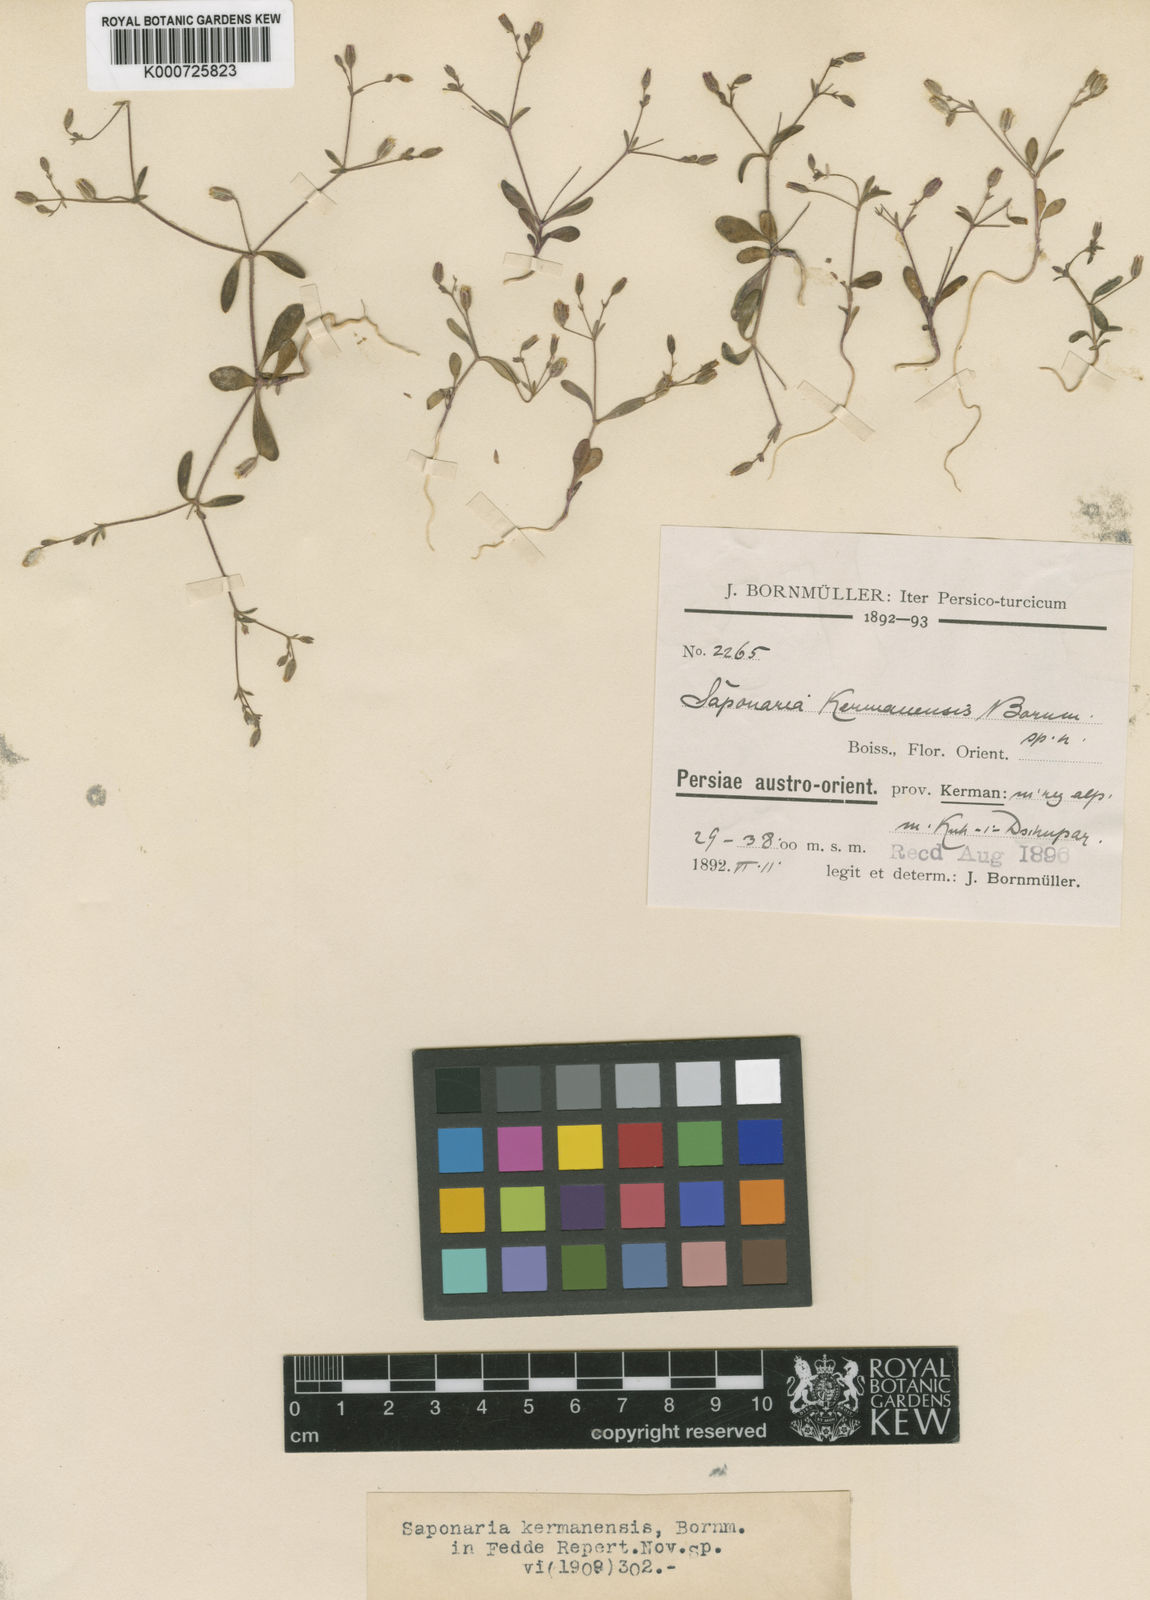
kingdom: Plantae
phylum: Tracheophyta
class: Magnoliopsida
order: Caryophyllales
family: Caryophyllaceae
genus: Saponaria
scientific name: Saponaria
